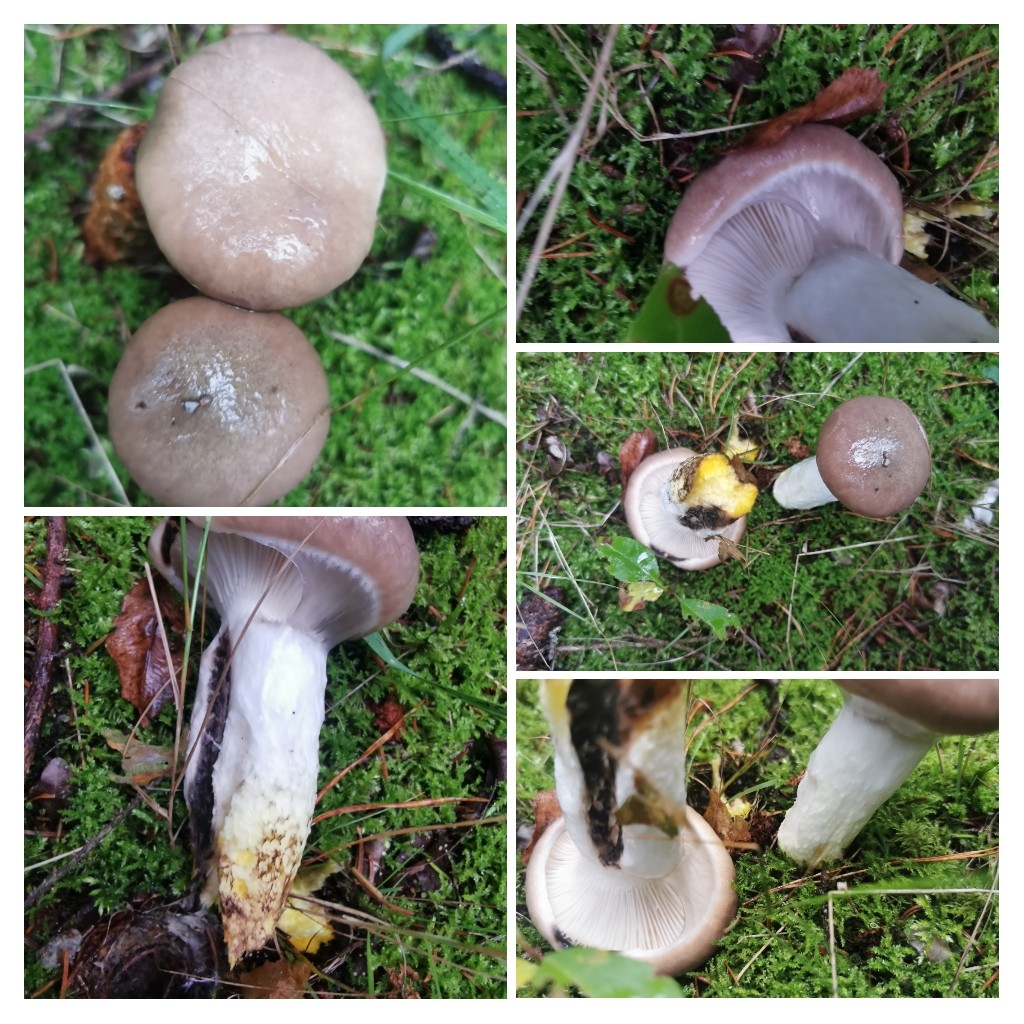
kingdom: Fungi
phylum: Basidiomycota
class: Agaricomycetes
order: Boletales
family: Gomphidiaceae
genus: Gomphidius
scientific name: Gomphidius glutinosus
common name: grå slimslør
